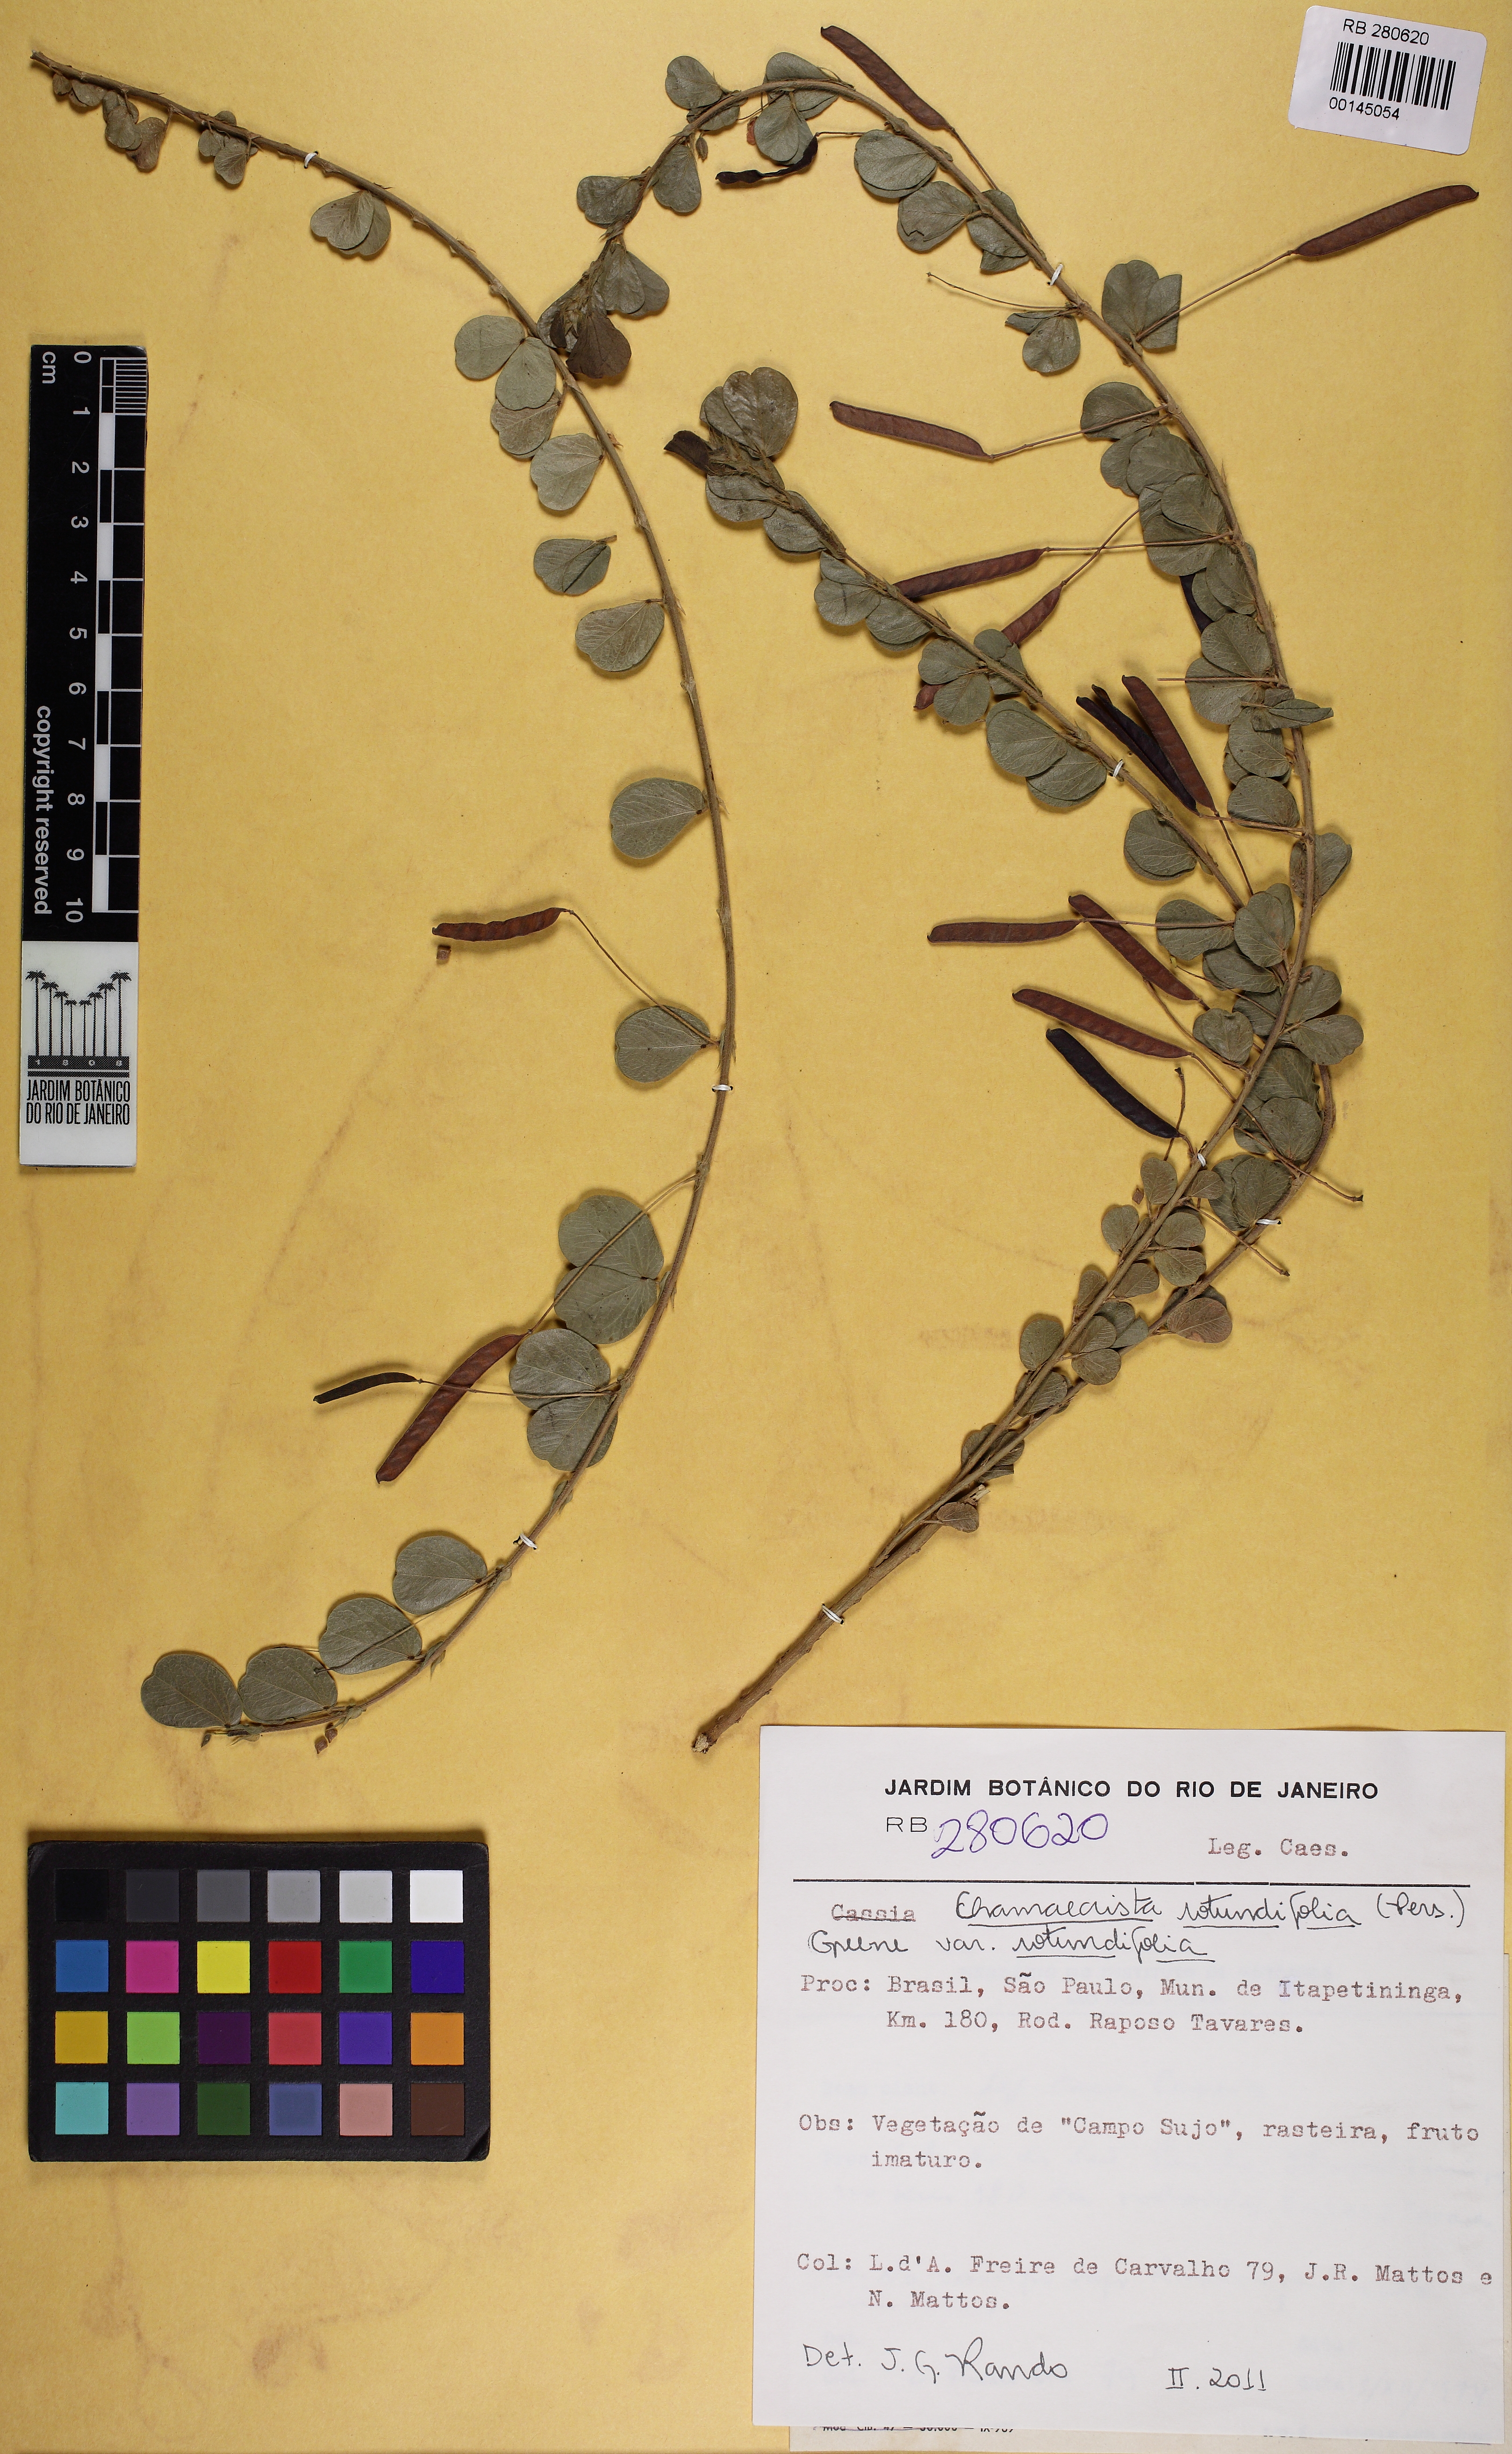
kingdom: Plantae
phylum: Tracheophyta
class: Magnoliopsida
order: Fabales
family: Fabaceae
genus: Chamaecrista
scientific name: Chamaecrista rotundifolia
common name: Round-leaf cassia
